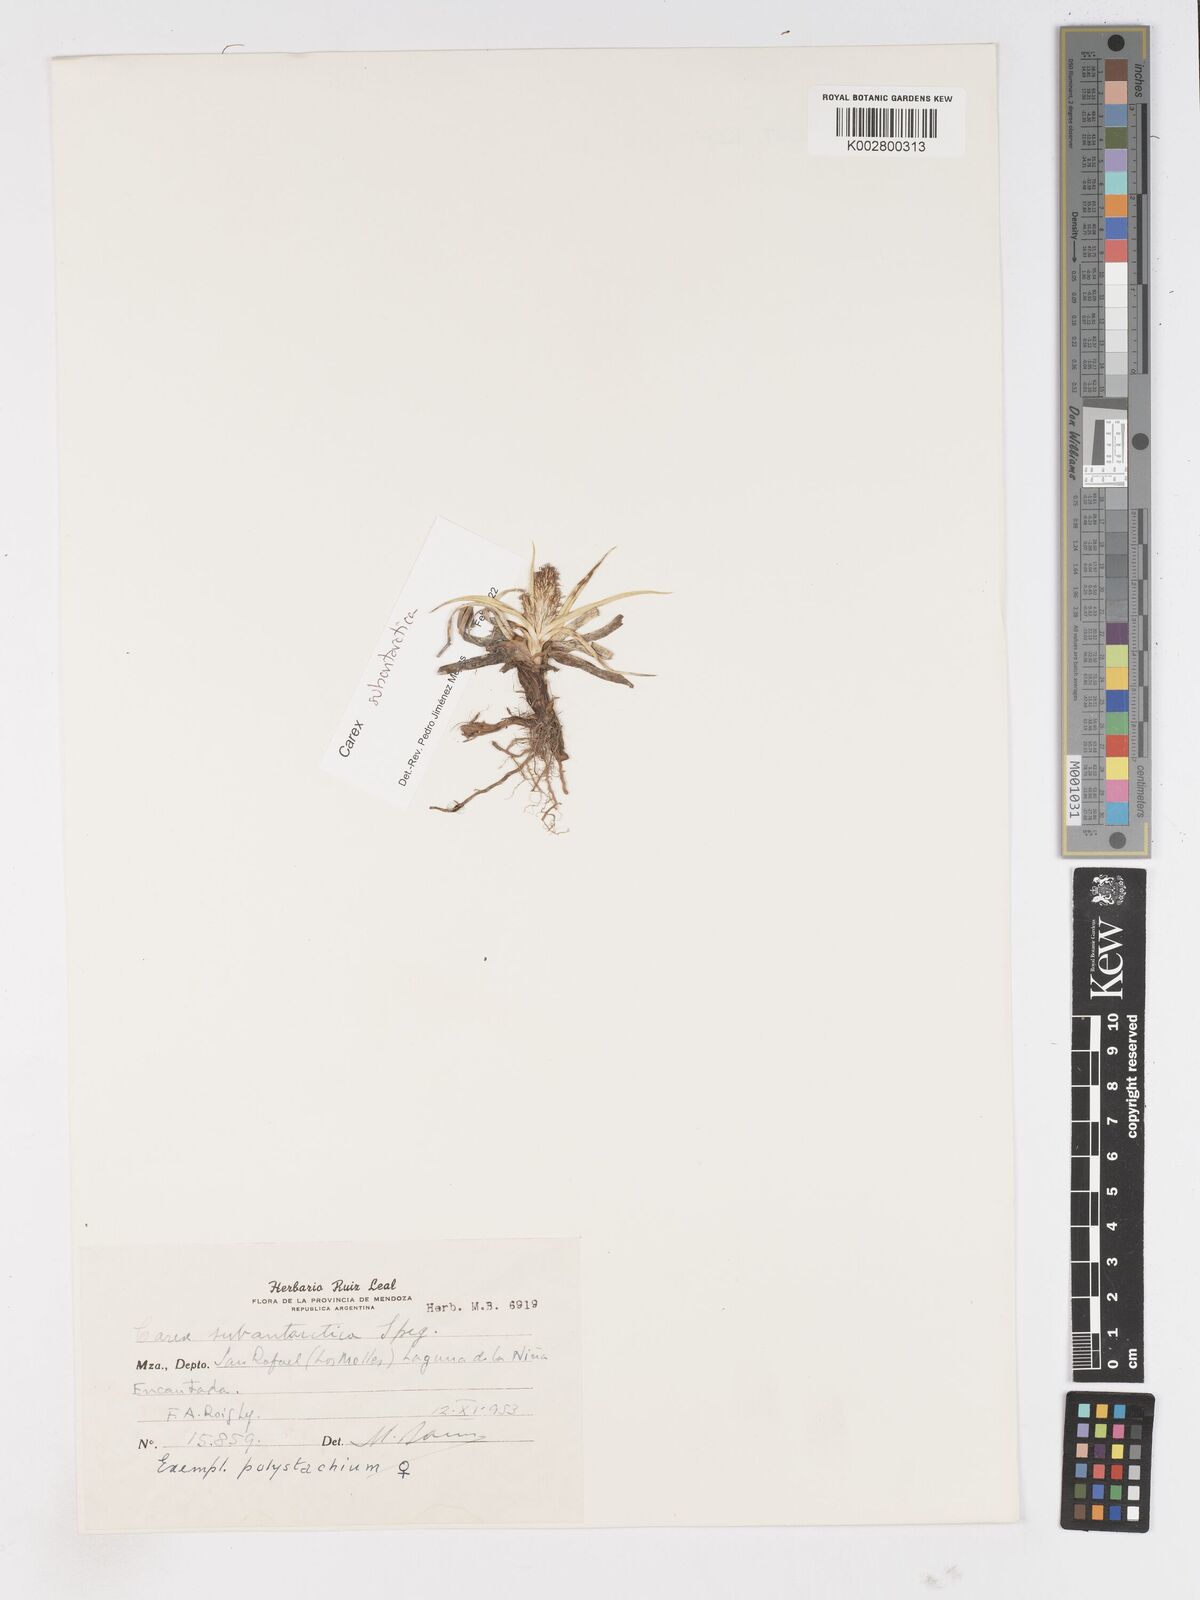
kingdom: Plantae
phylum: Tracheophyta
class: Liliopsida
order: Poales
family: Cyperaceae
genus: Carex
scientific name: Carex subantarctica
